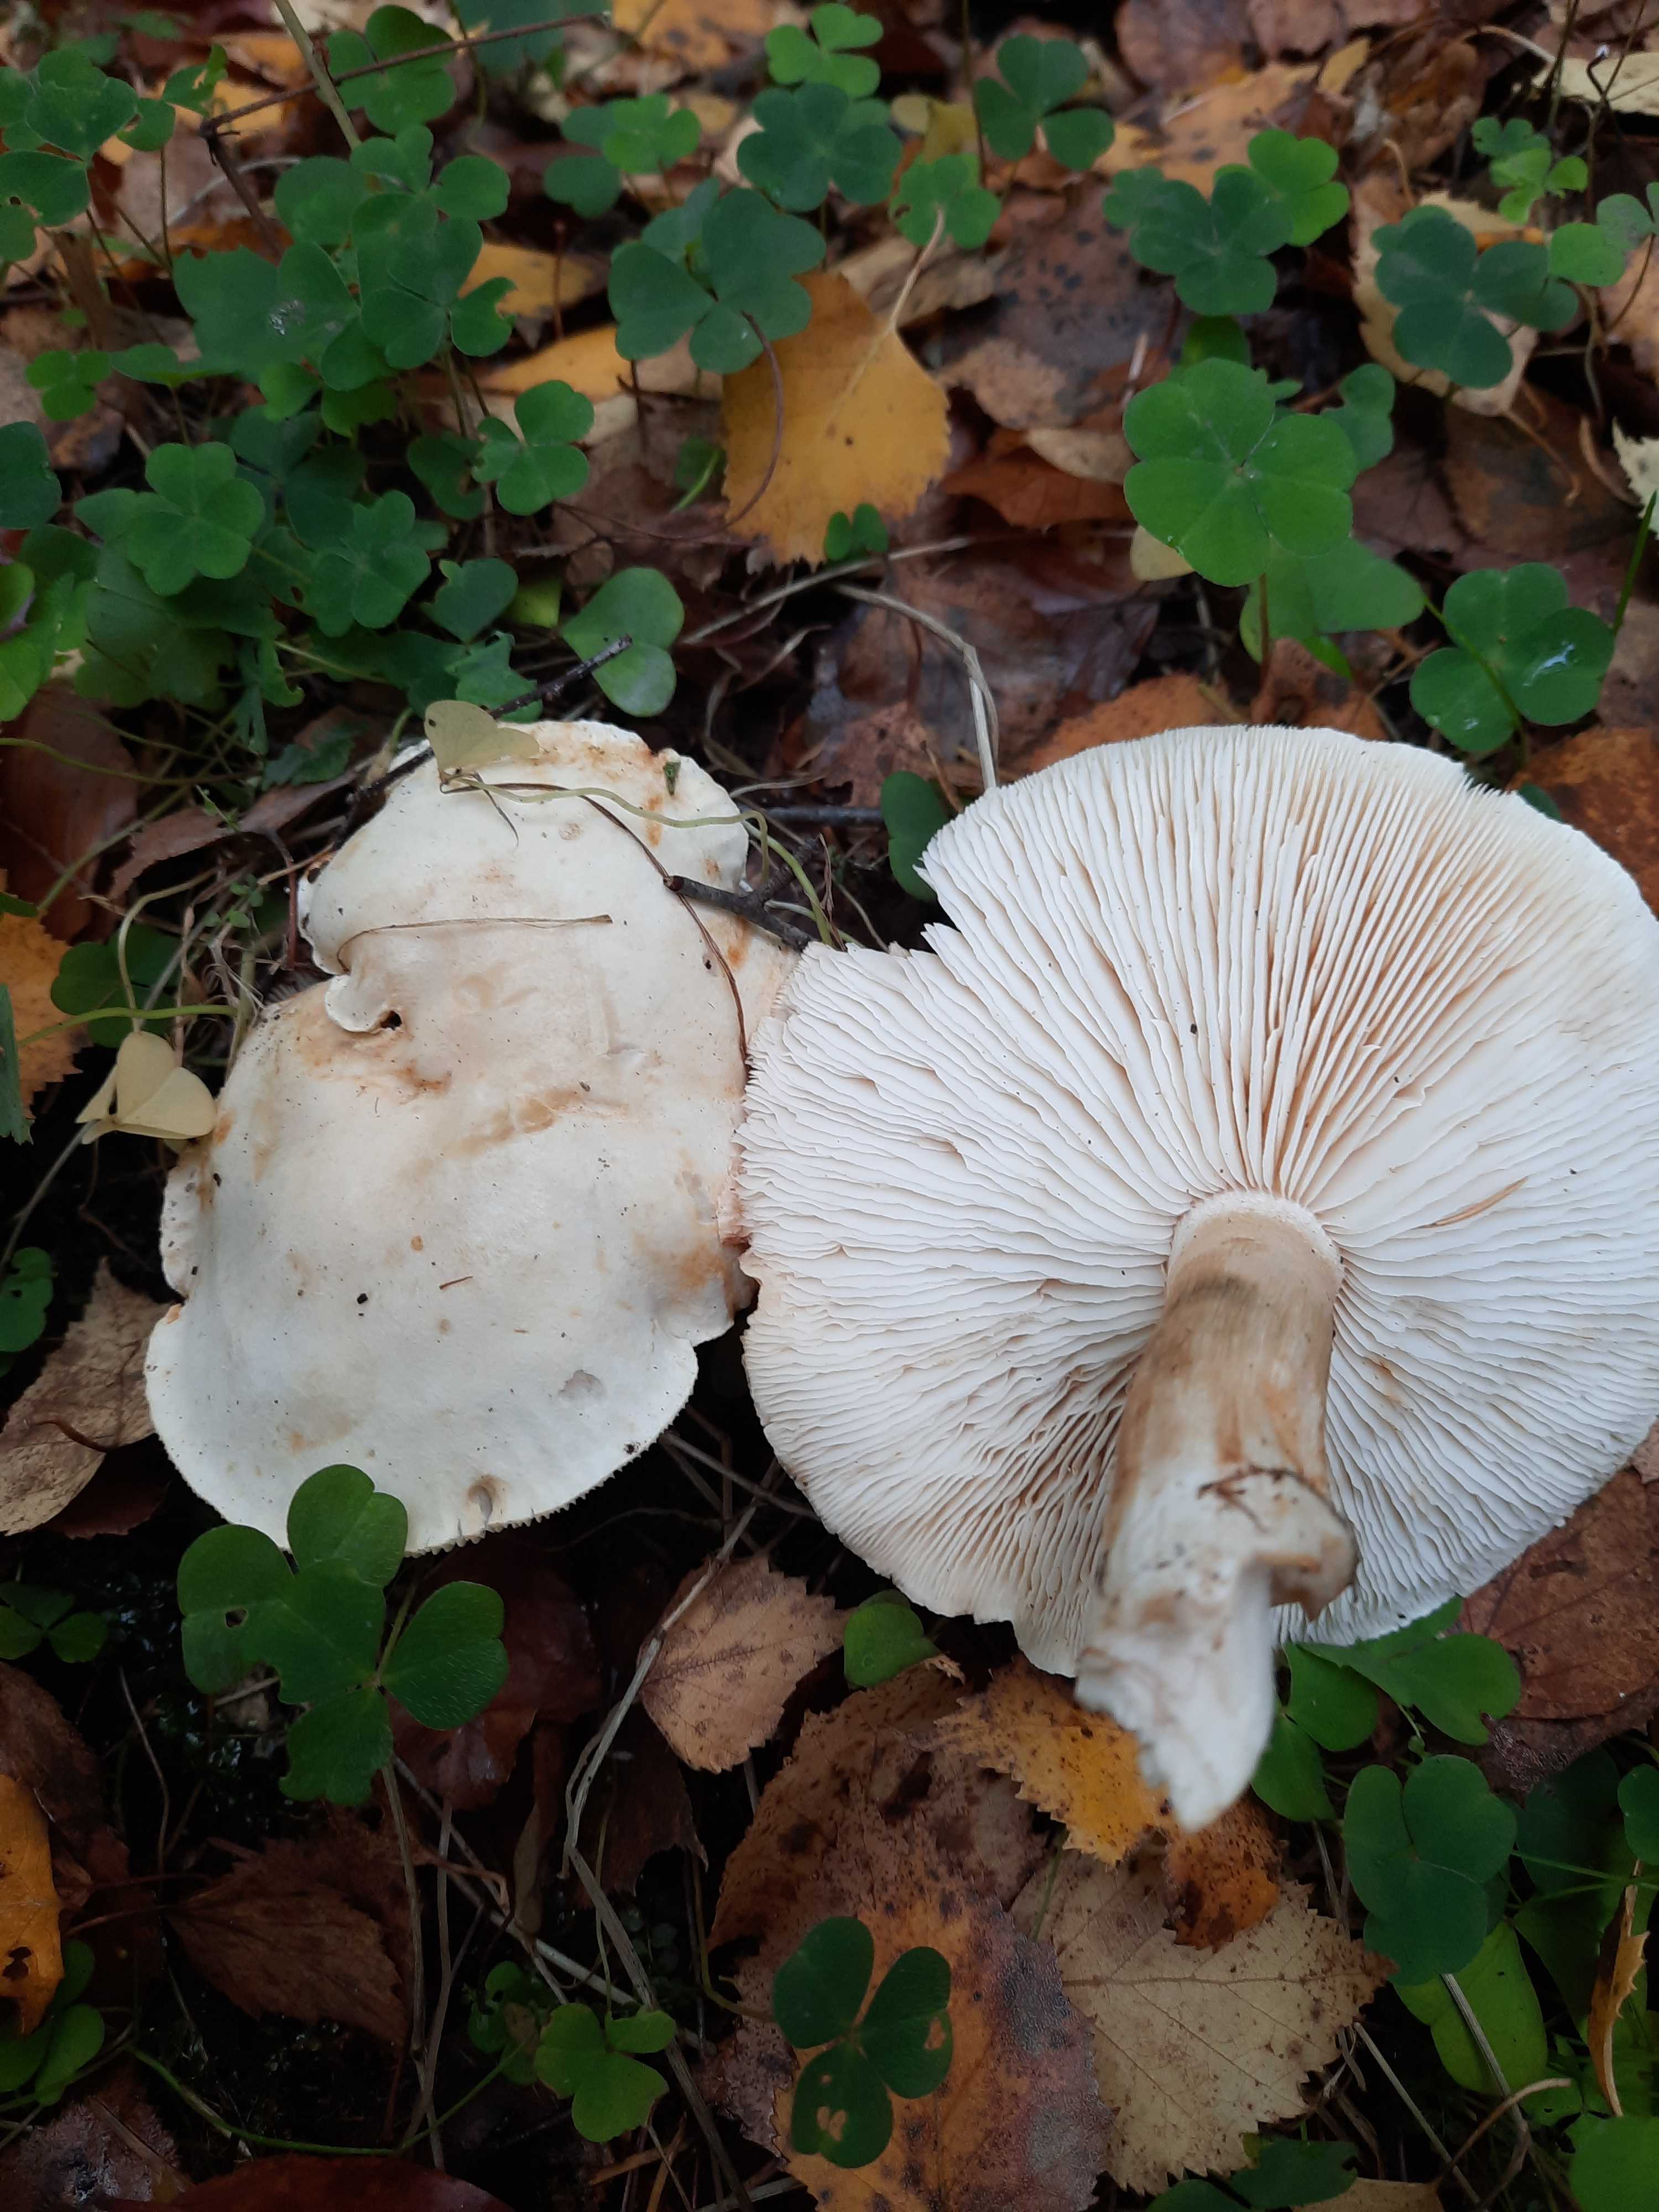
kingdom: Fungi
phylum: Basidiomycota
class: Agaricomycetes
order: Agaricales
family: Tricholomataceae
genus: Tricholoma
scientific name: Tricholoma stiparophyllum
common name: hvid ridderhat
